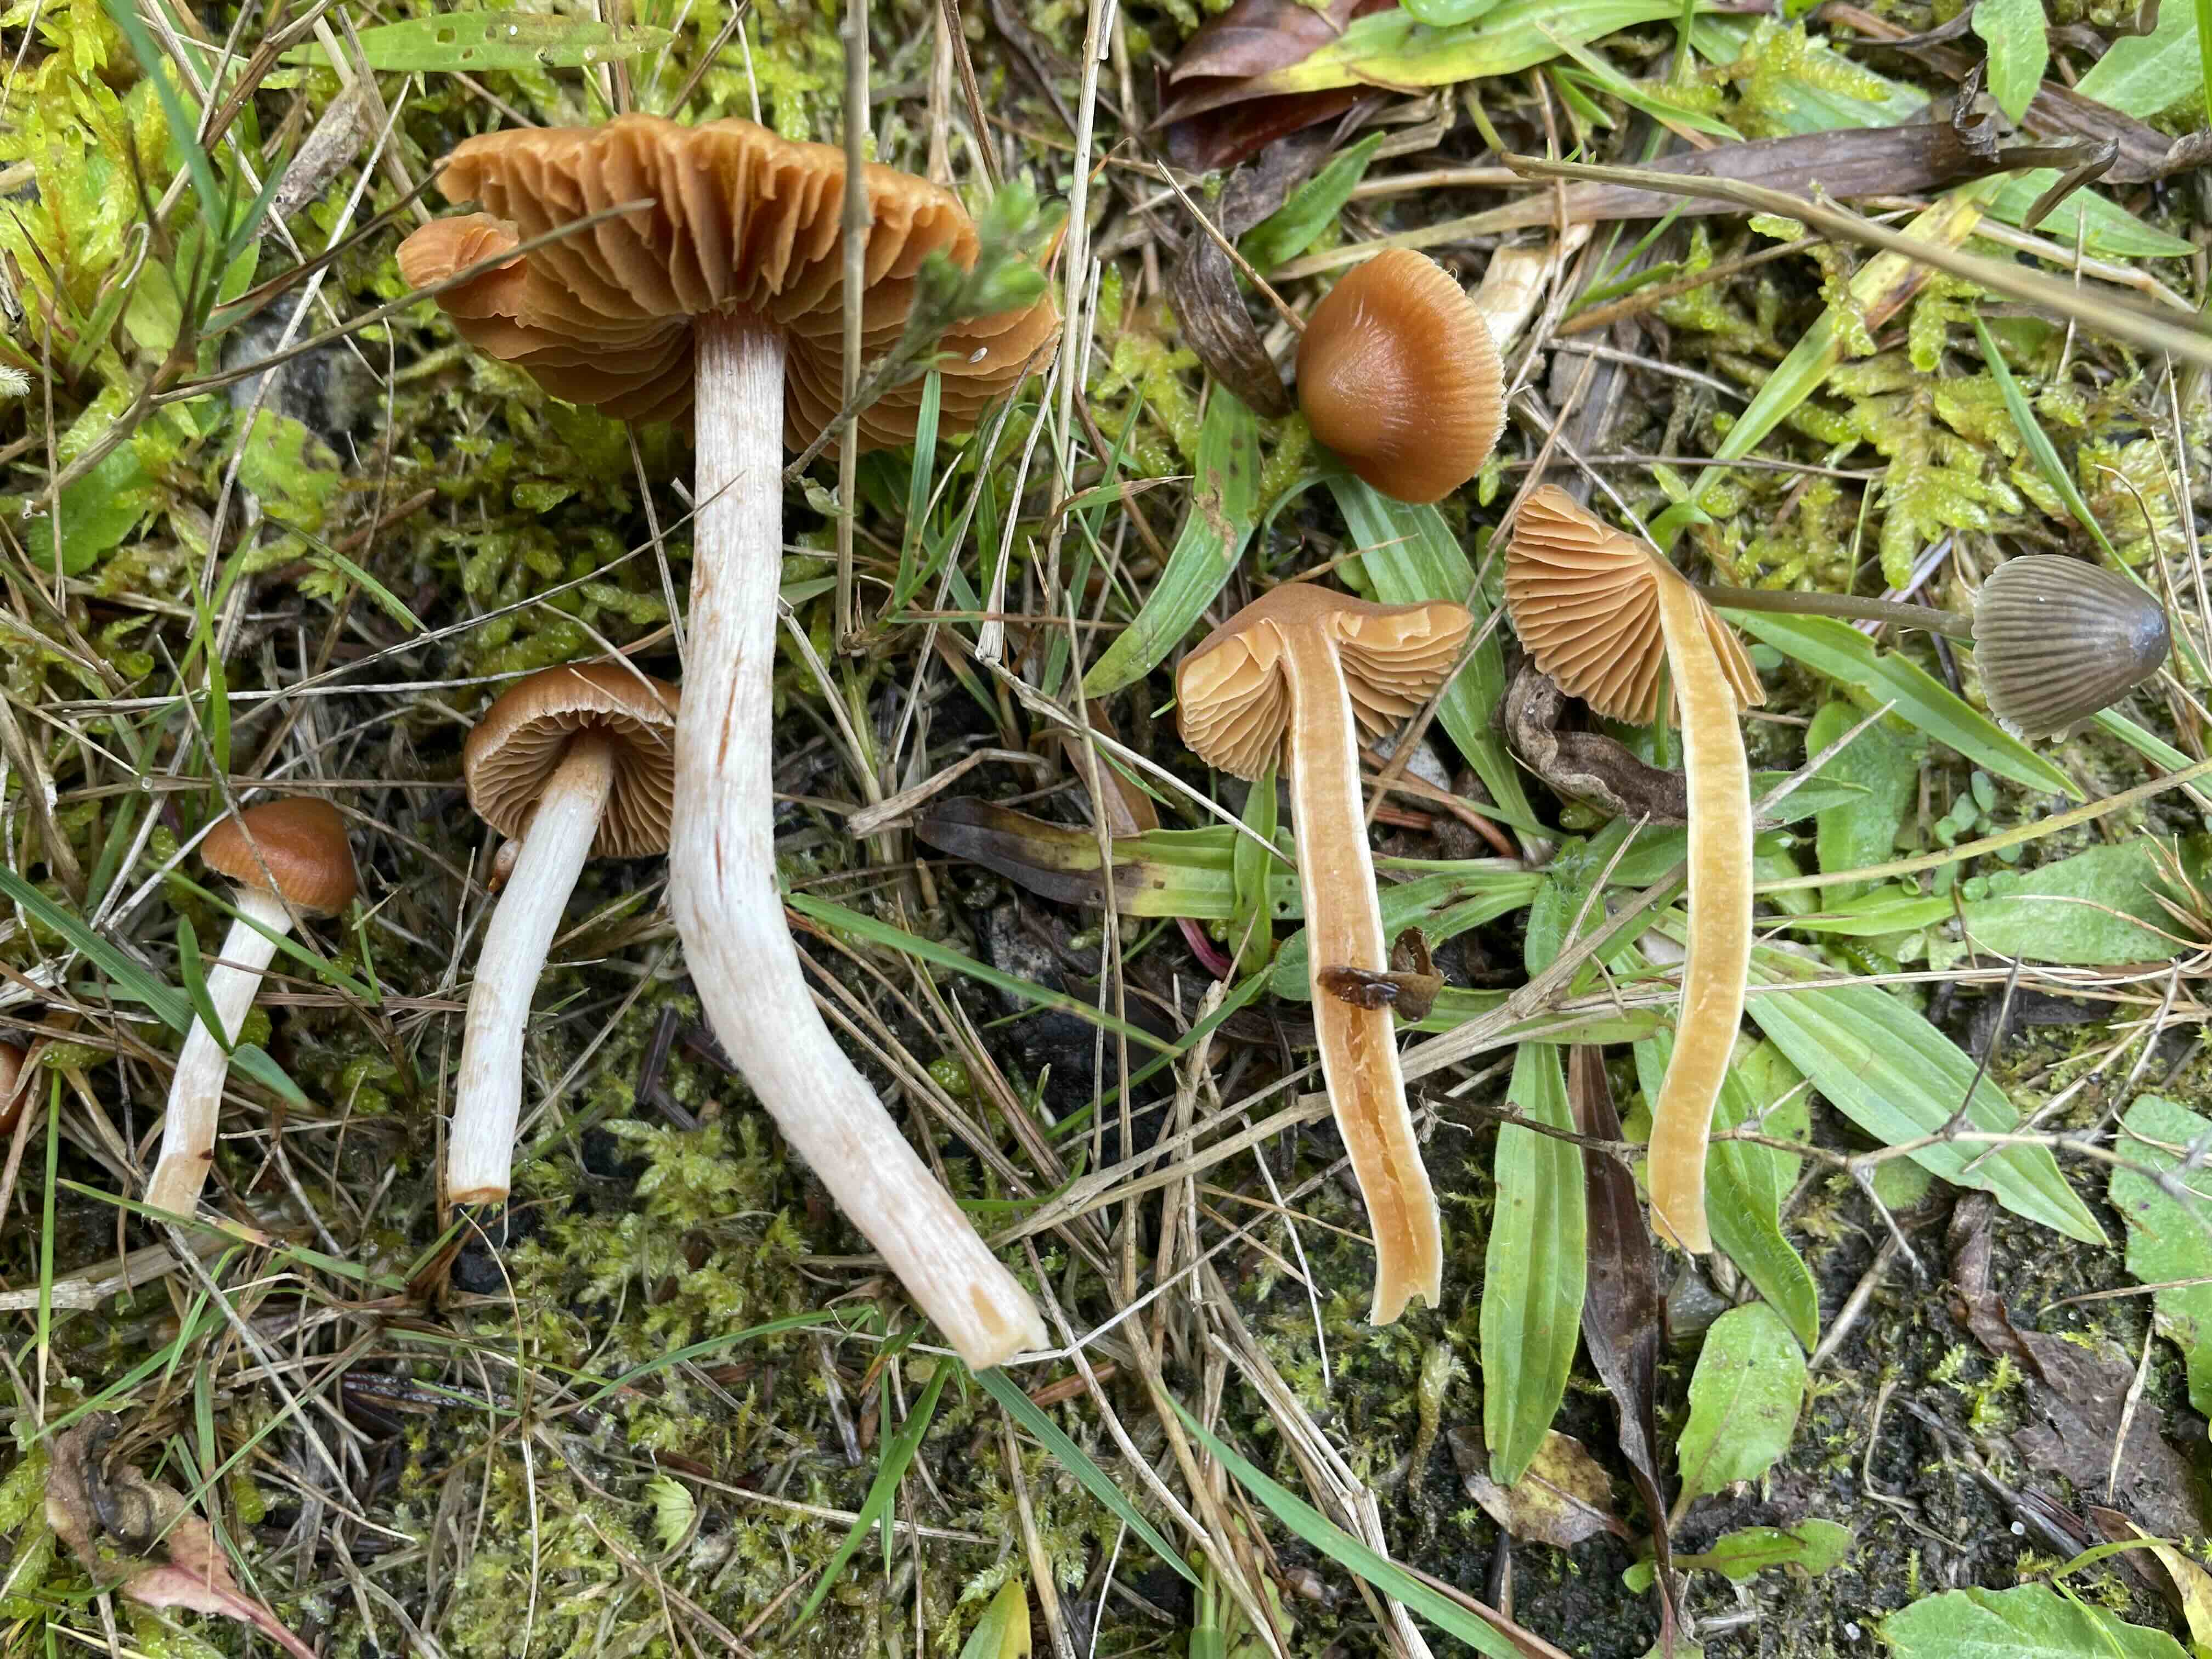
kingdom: Fungi
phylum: Basidiomycota
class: Agaricomycetes
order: Agaricales
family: Cortinariaceae
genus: Cortinarius
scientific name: Cortinarius
